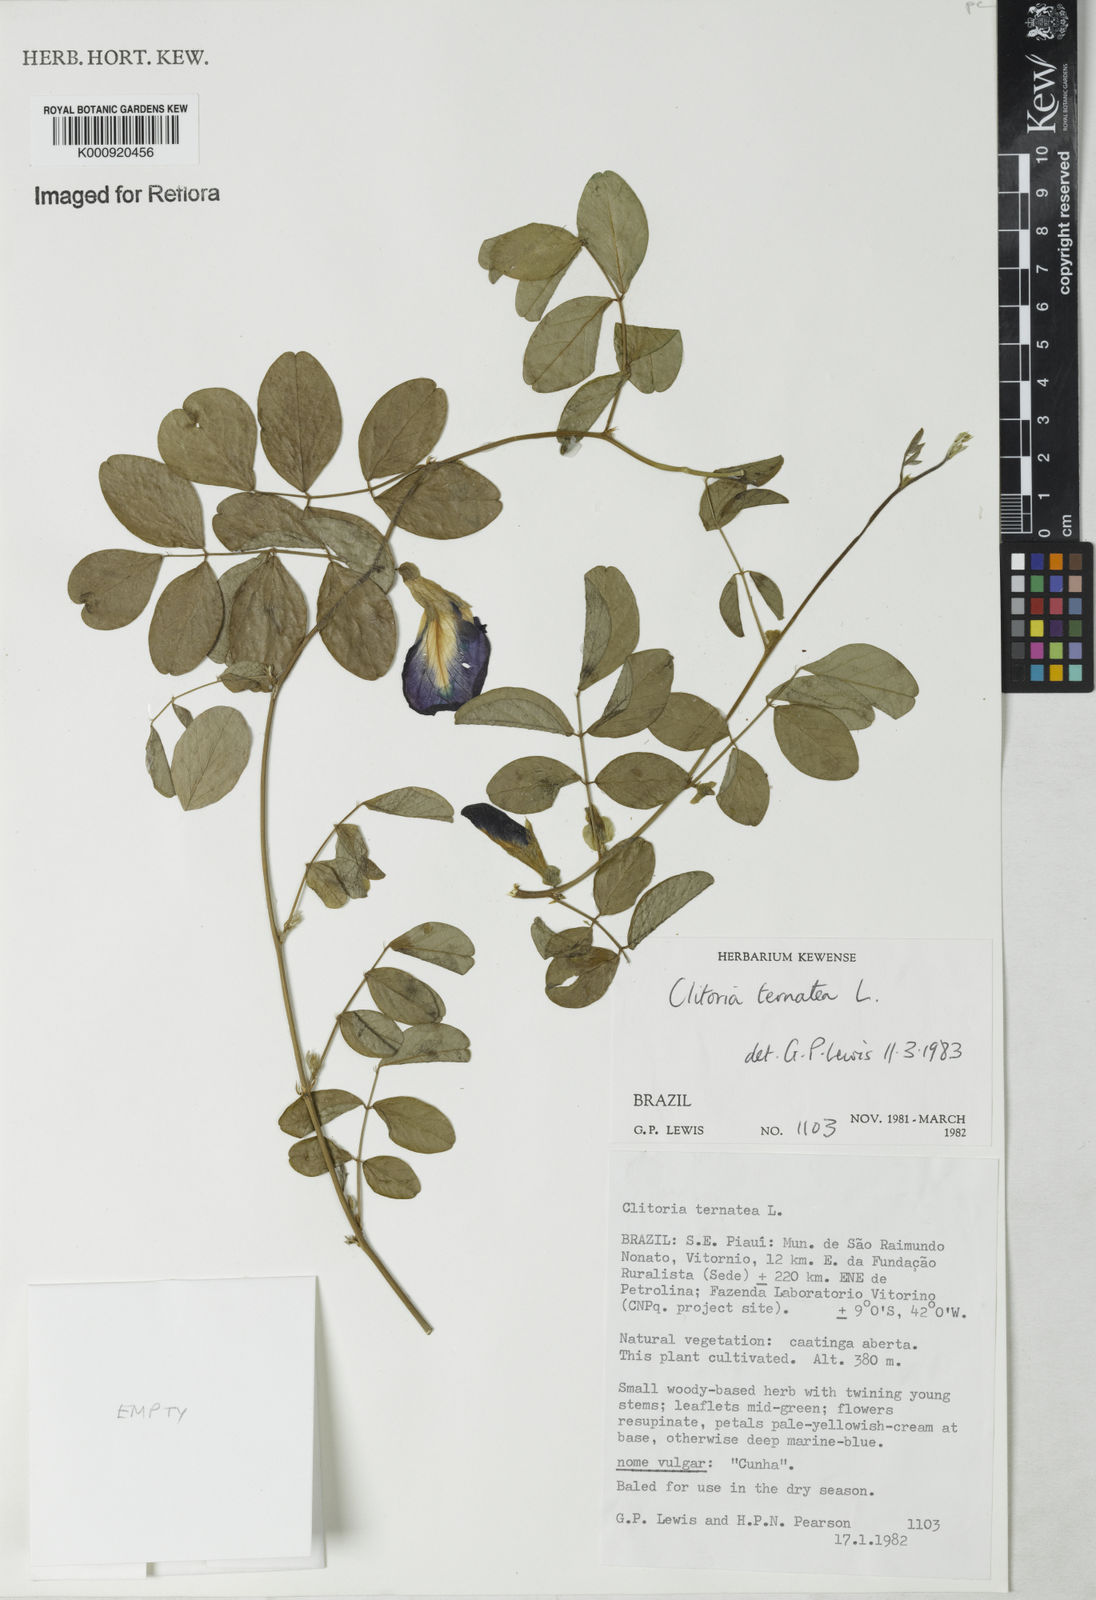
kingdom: Plantae
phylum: Tracheophyta
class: Magnoliopsida
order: Fabales
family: Fabaceae
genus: Clitoria
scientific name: Clitoria ternatea
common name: Asian pigeonwings
